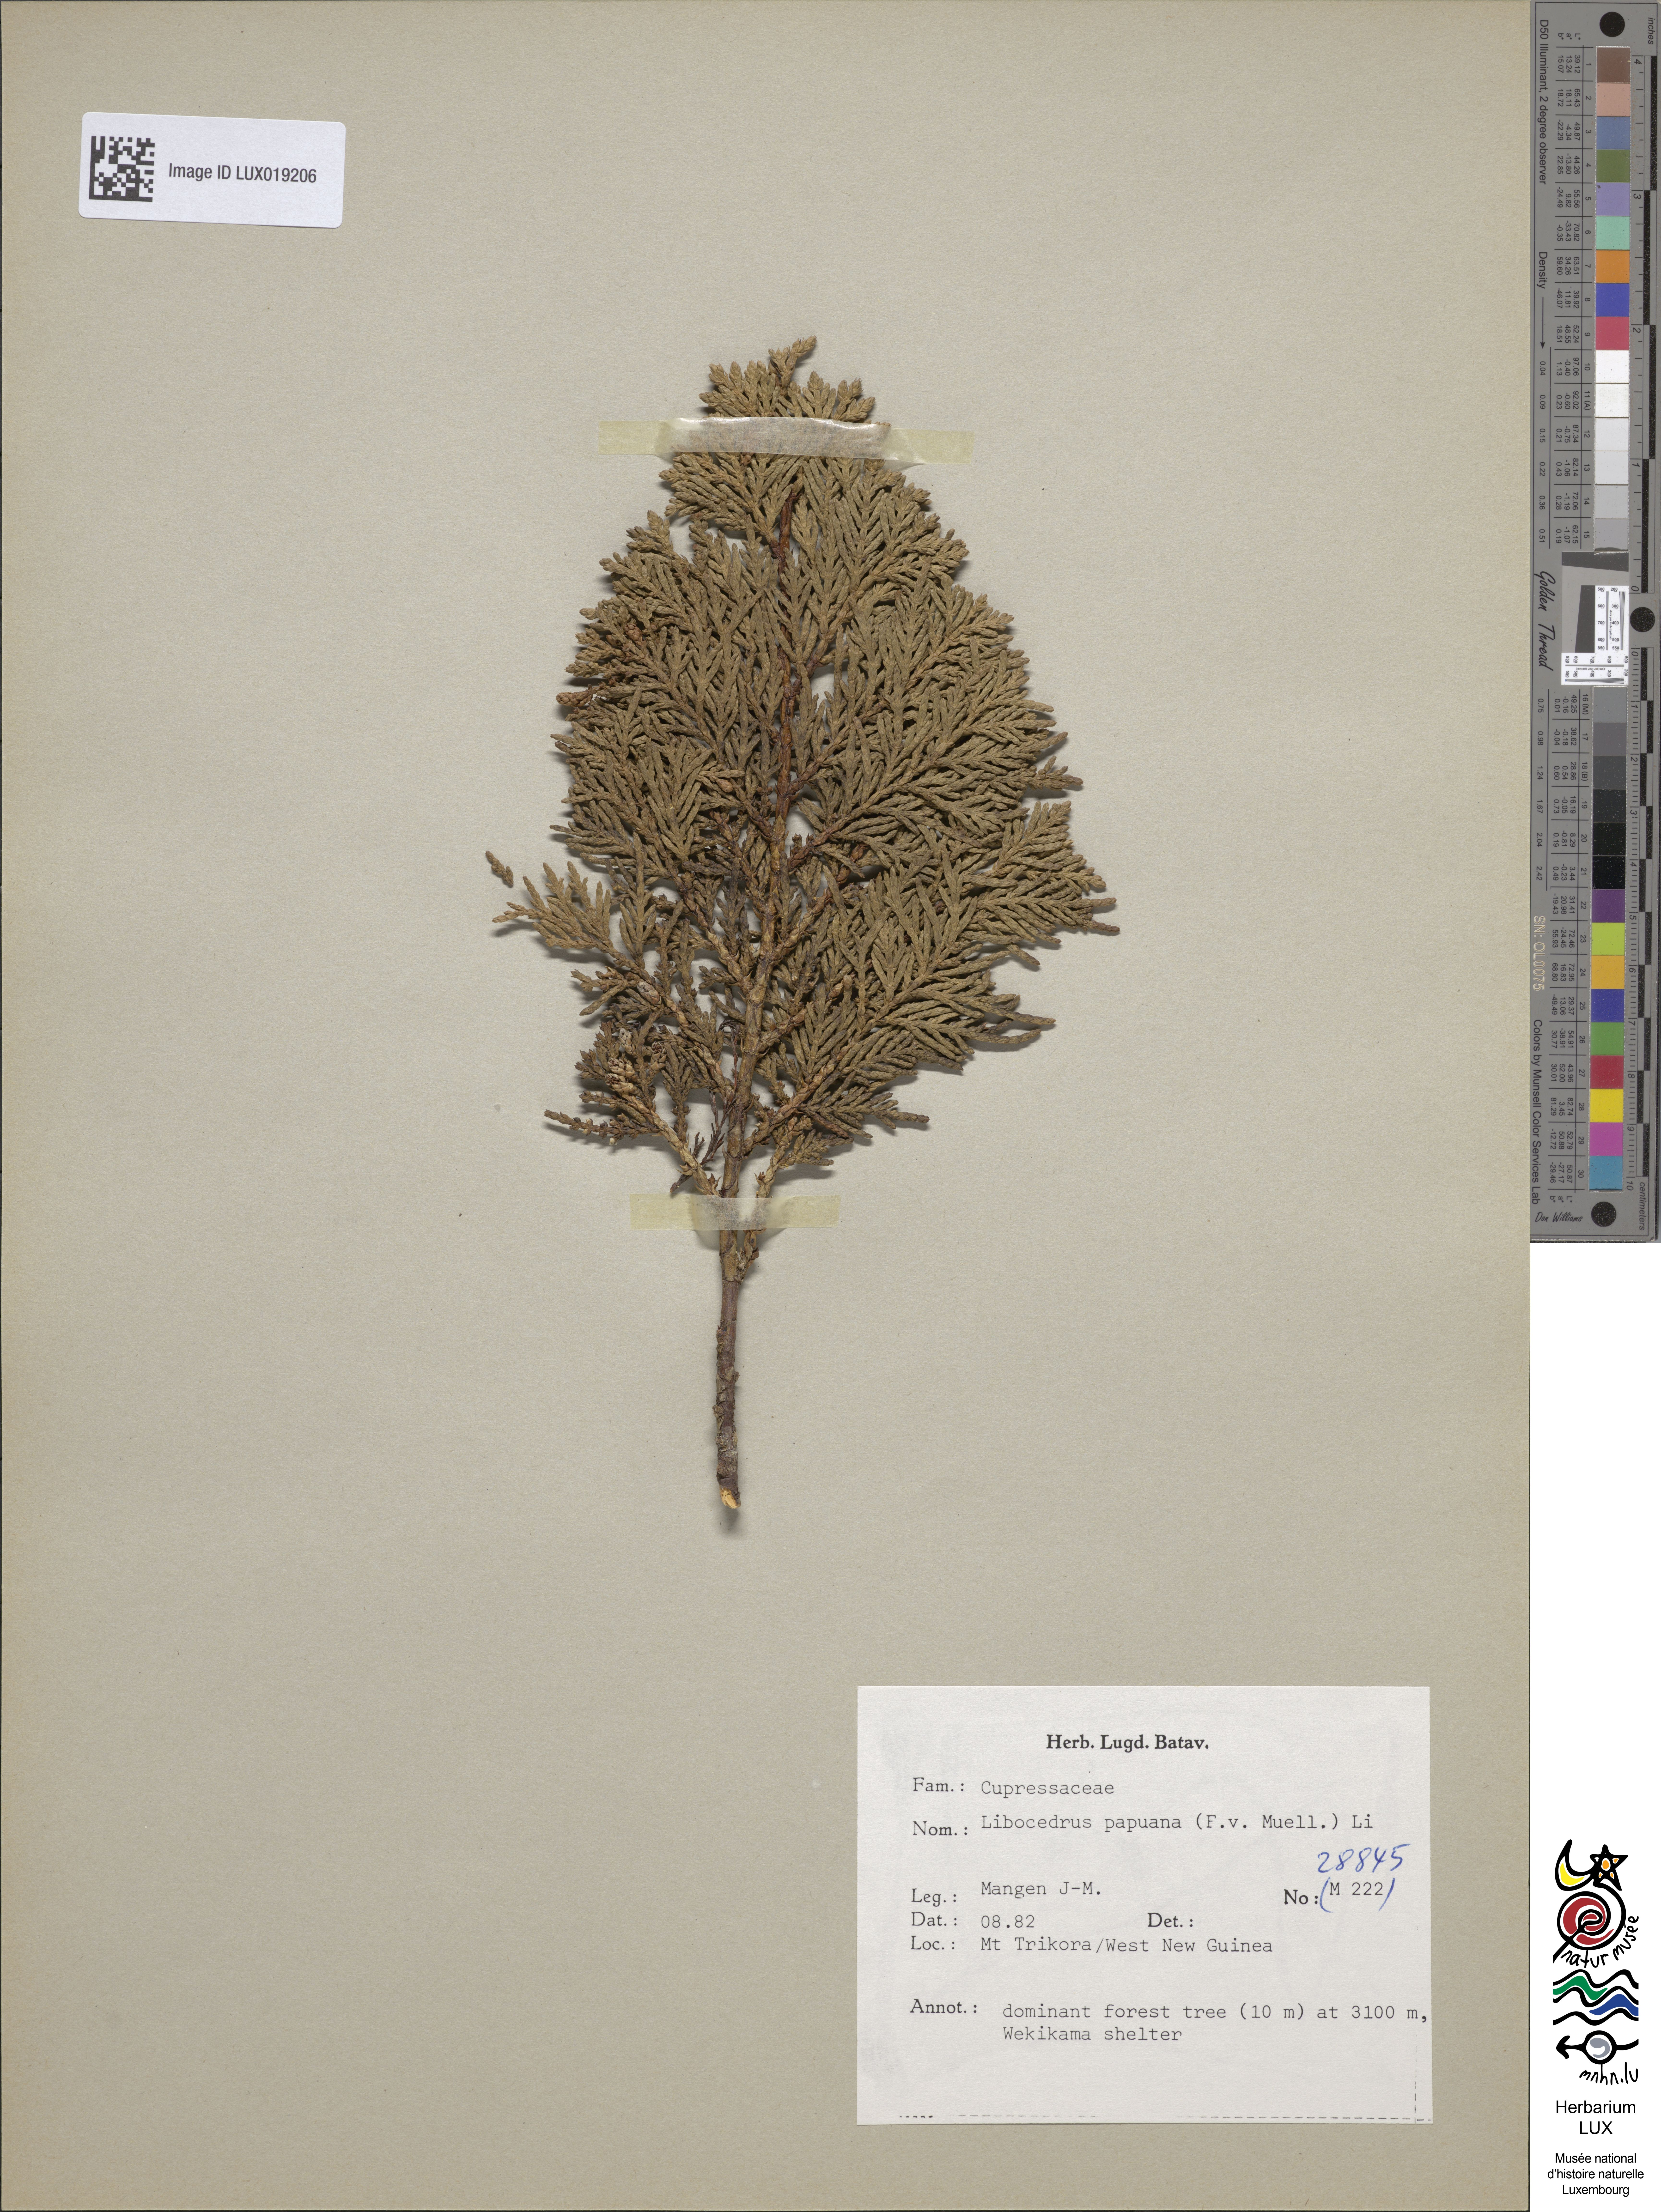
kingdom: Plantae
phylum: Tracheophyta
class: Pinopsida
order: Pinales
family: Cupressaceae
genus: Papuacedrus
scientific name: Papuacedrus papuana
